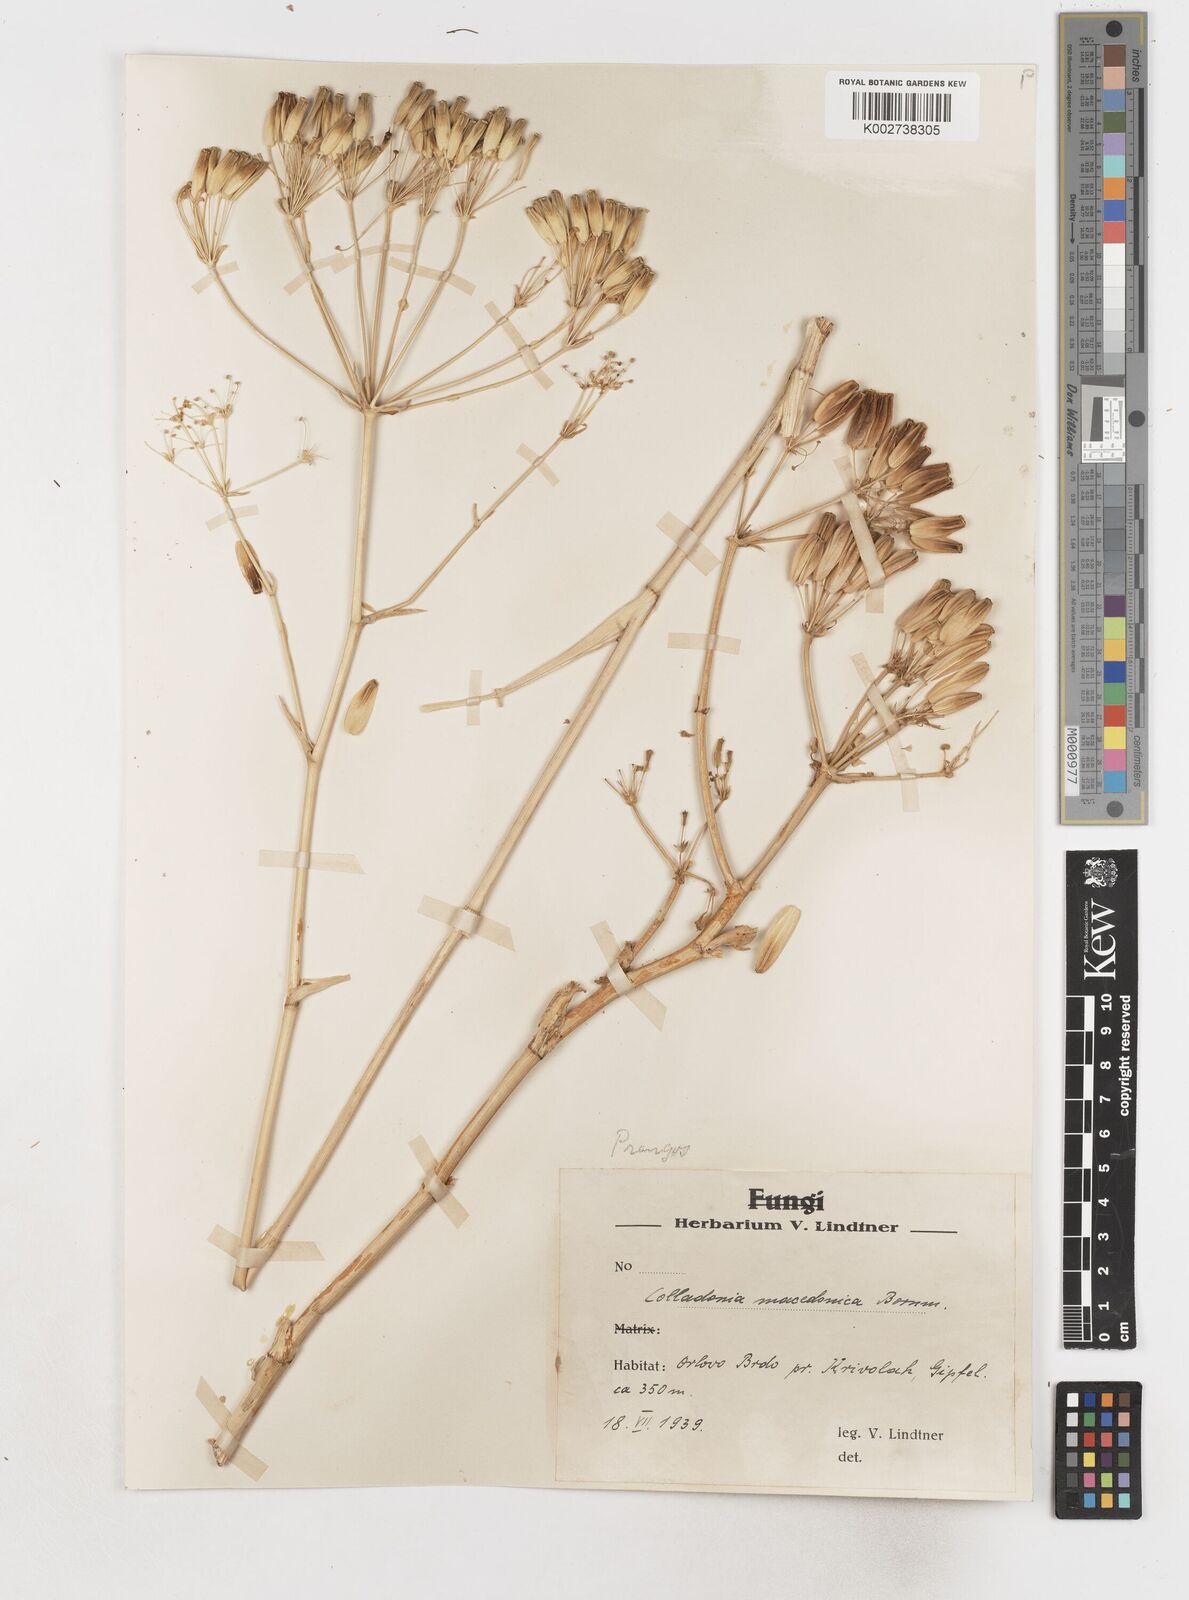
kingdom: Plantae
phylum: Tracheophyta
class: Magnoliopsida
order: Apiales
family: Apiaceae
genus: Heptaptera
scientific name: Heptaptera macedonica
